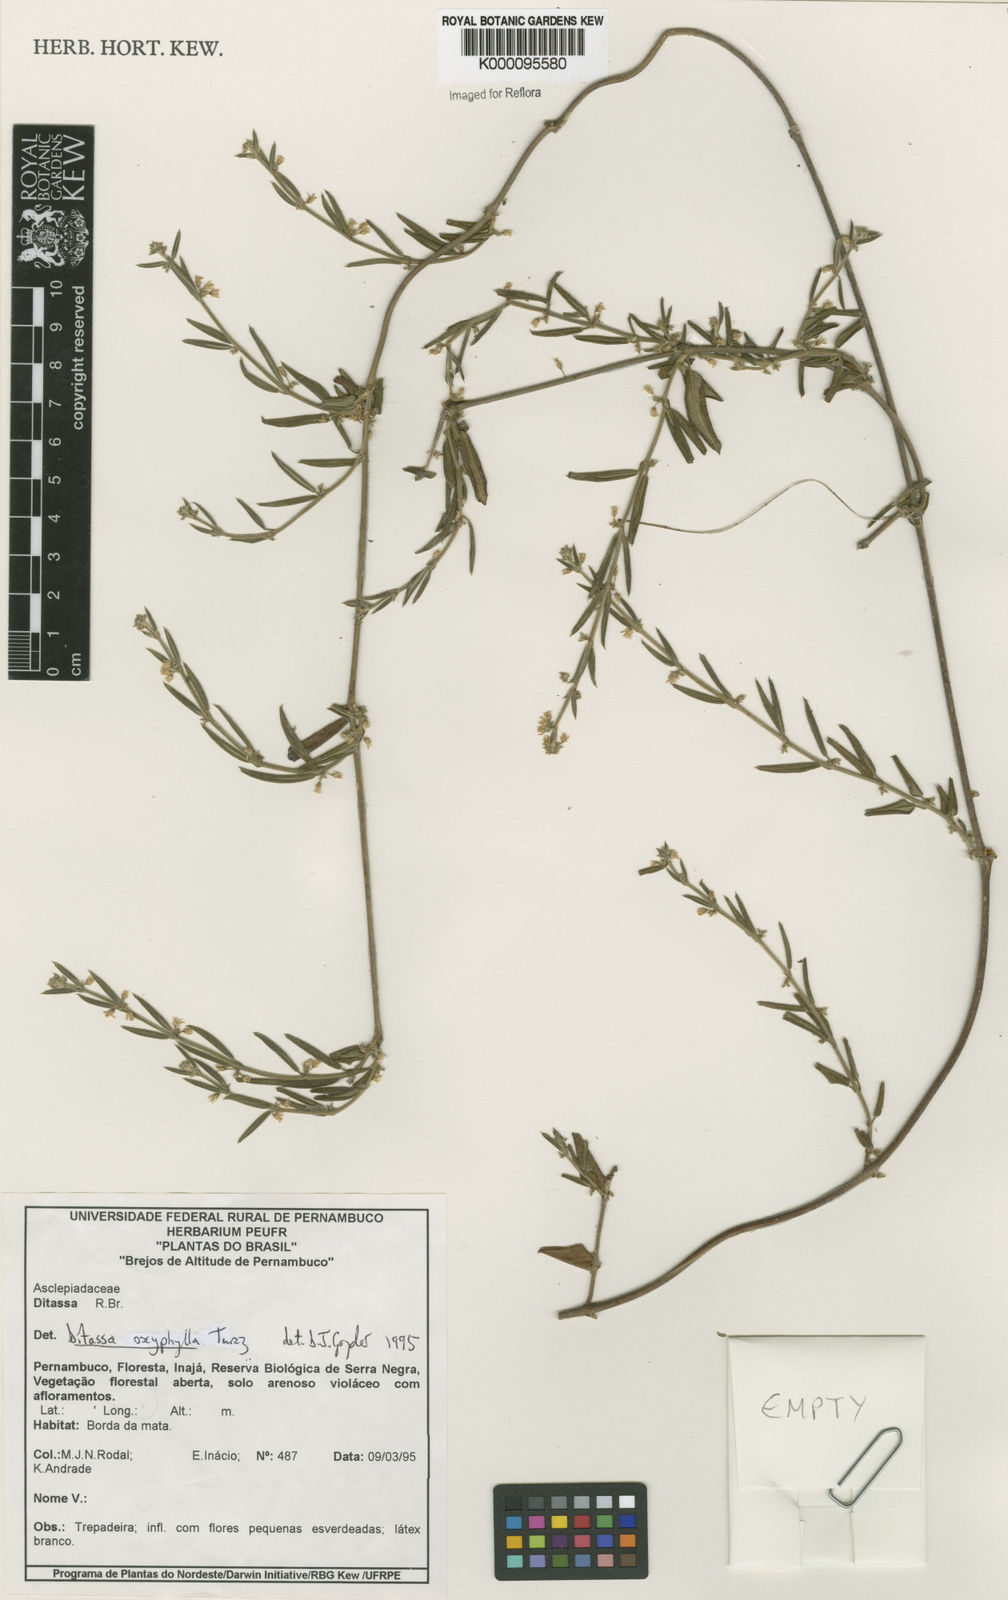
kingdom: Plantae
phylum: Tracheophyta
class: Magnoliopsida
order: Gentianales
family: Apocynaceae
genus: Ditassa
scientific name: Ditassa oxyphylla
